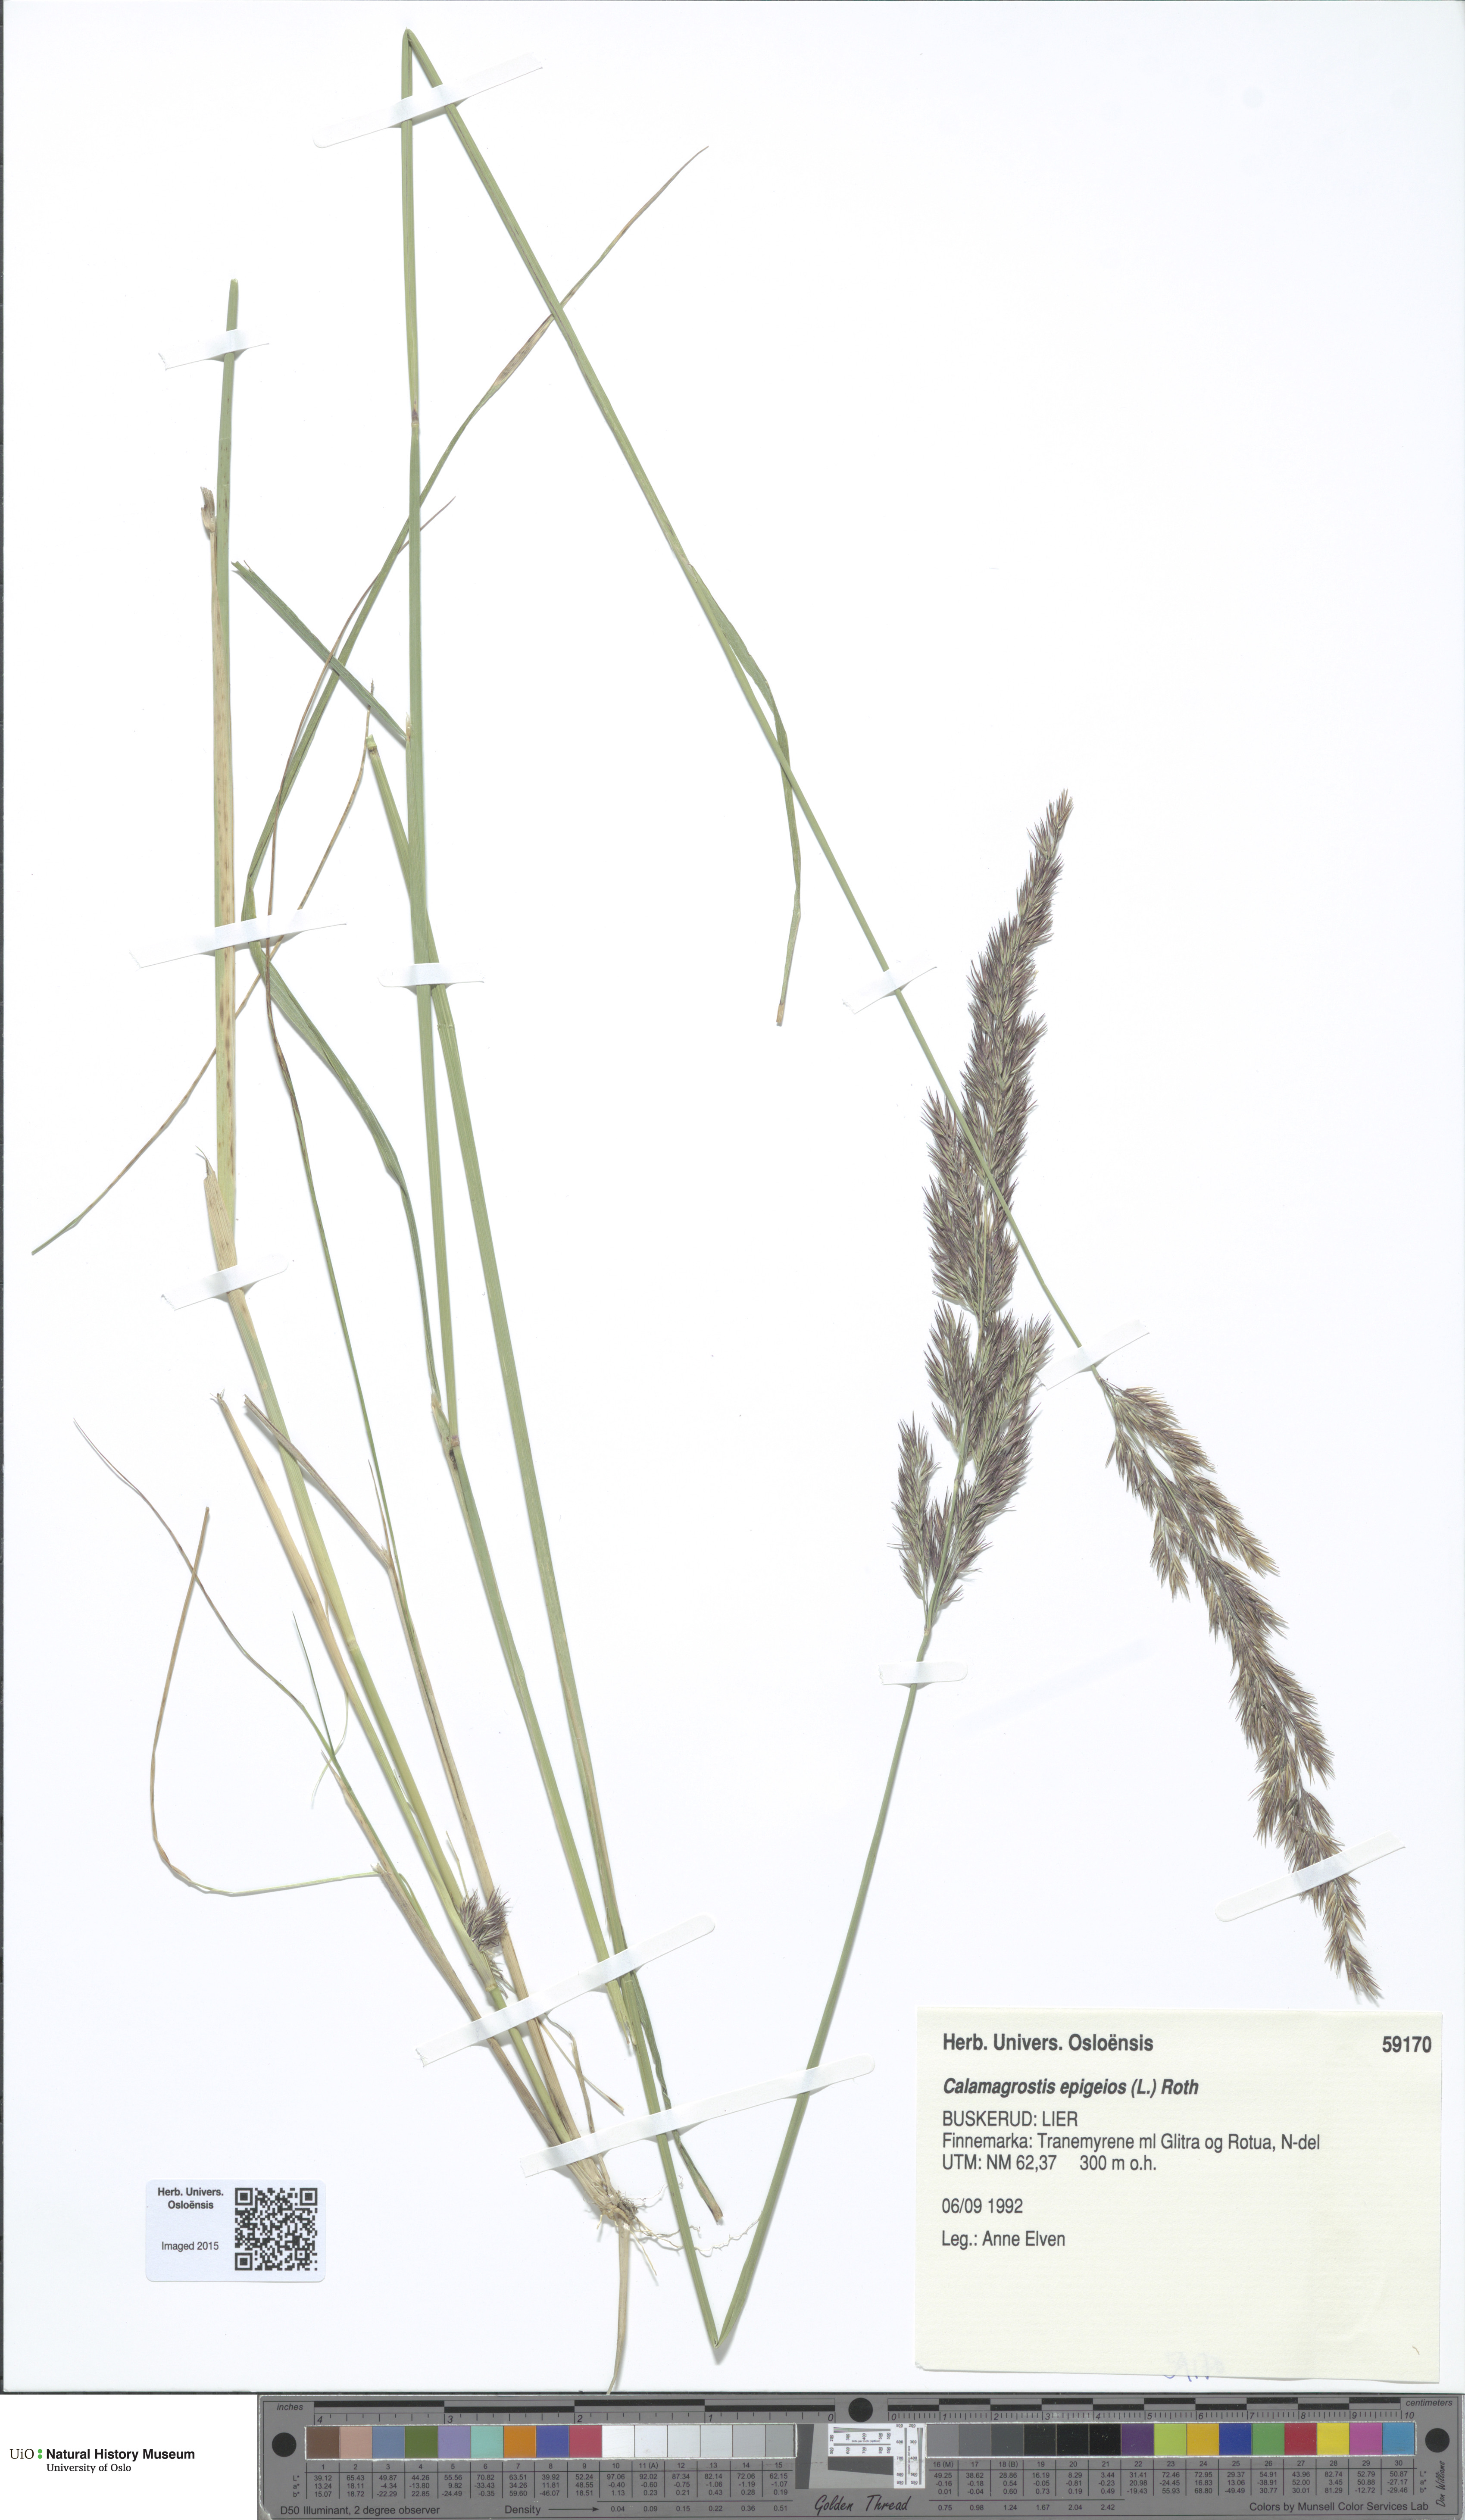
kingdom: Plantae
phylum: Tracheophyta
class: Liliopsida
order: Poales
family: Poaceae
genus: Calamagrostis
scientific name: Calamagrostis epigejos
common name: Wood small-reed
